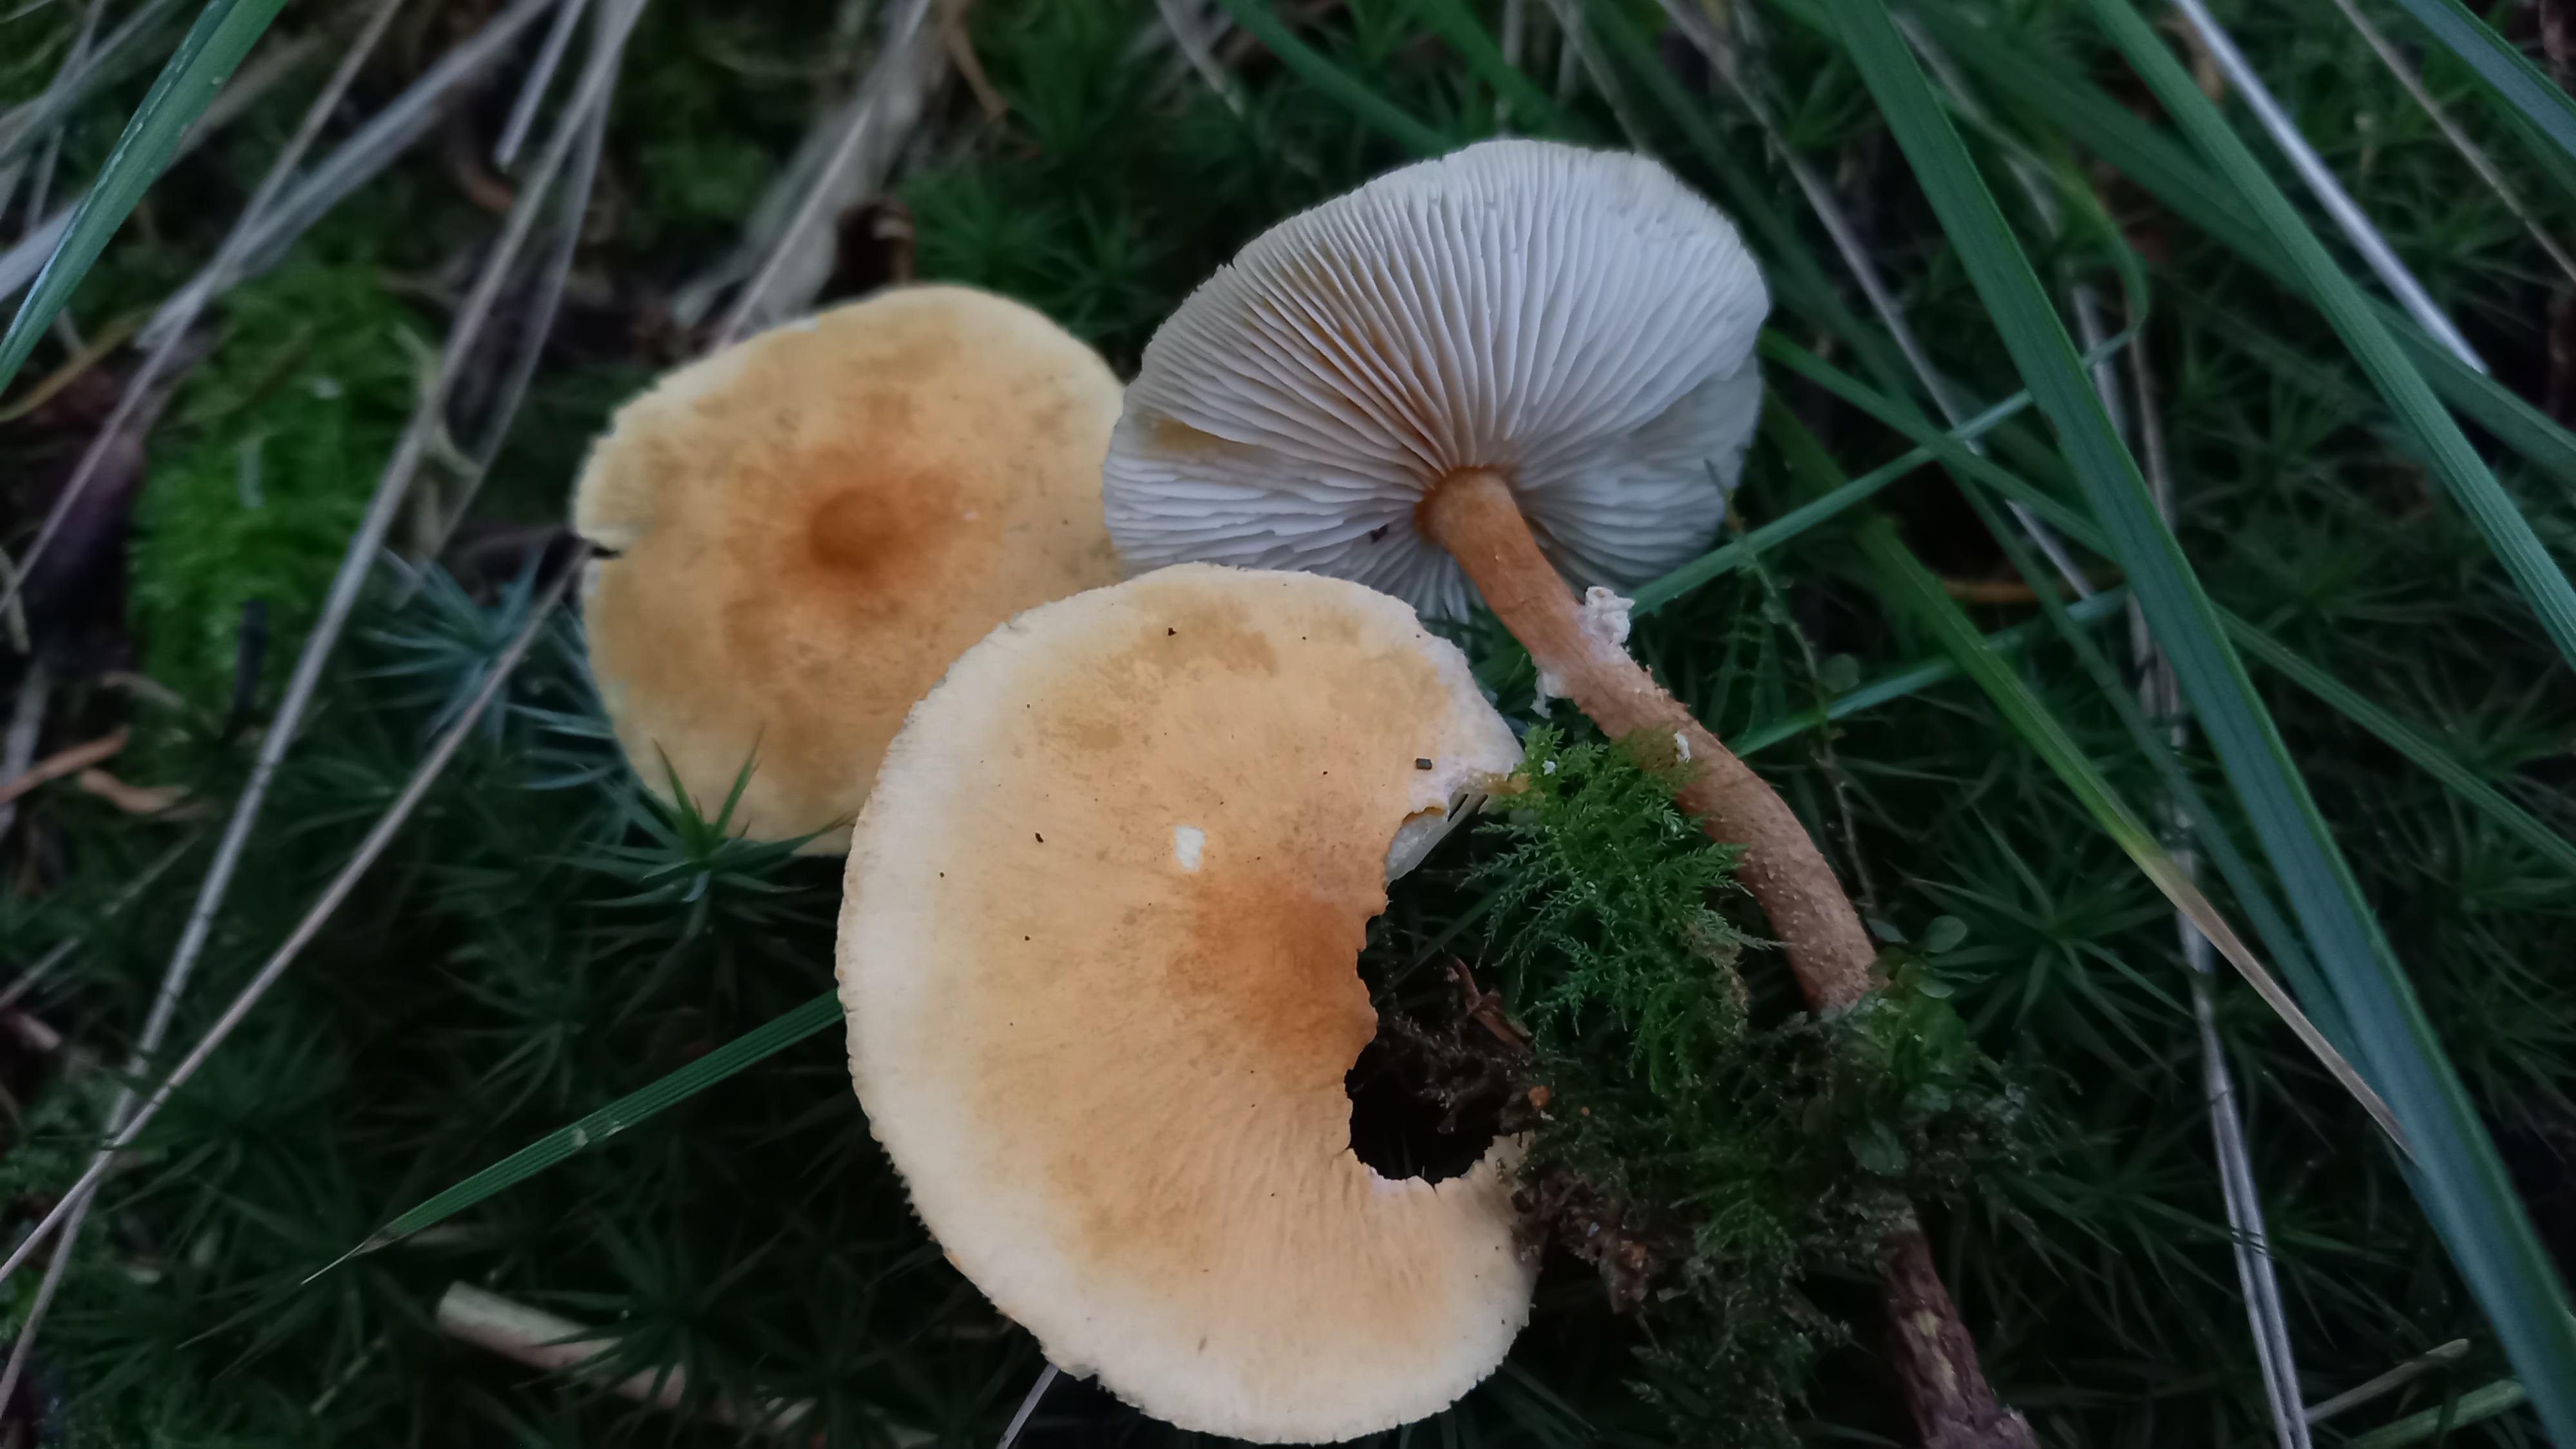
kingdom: Fungi
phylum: Basidiomycota
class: Agaricomycetes
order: Agaricales
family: Tricholomataceae
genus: Cystoderma
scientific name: Cystoderma amianthinum
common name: okkergul grynhat
